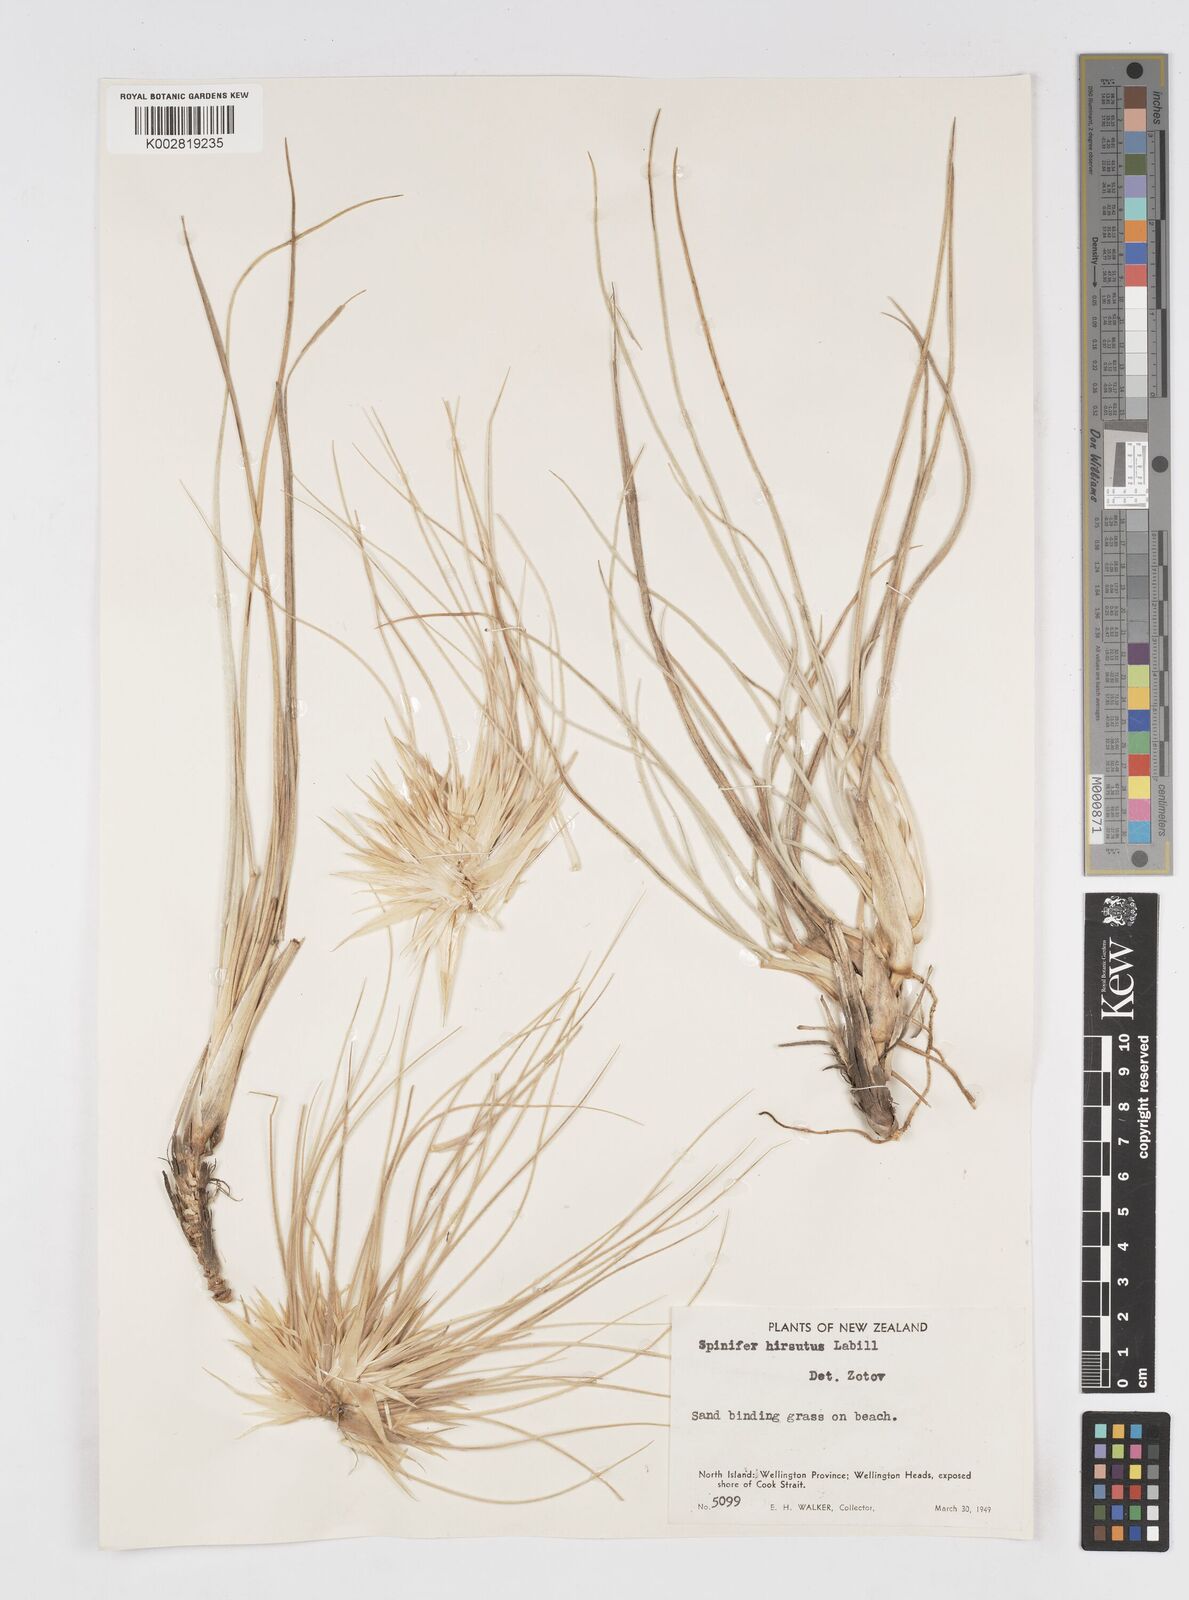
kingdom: Plantae
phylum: Tracheophyta
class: Liliopsida
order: Poales
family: Poaceae
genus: Spinifex
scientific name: Spinifex sericeus
